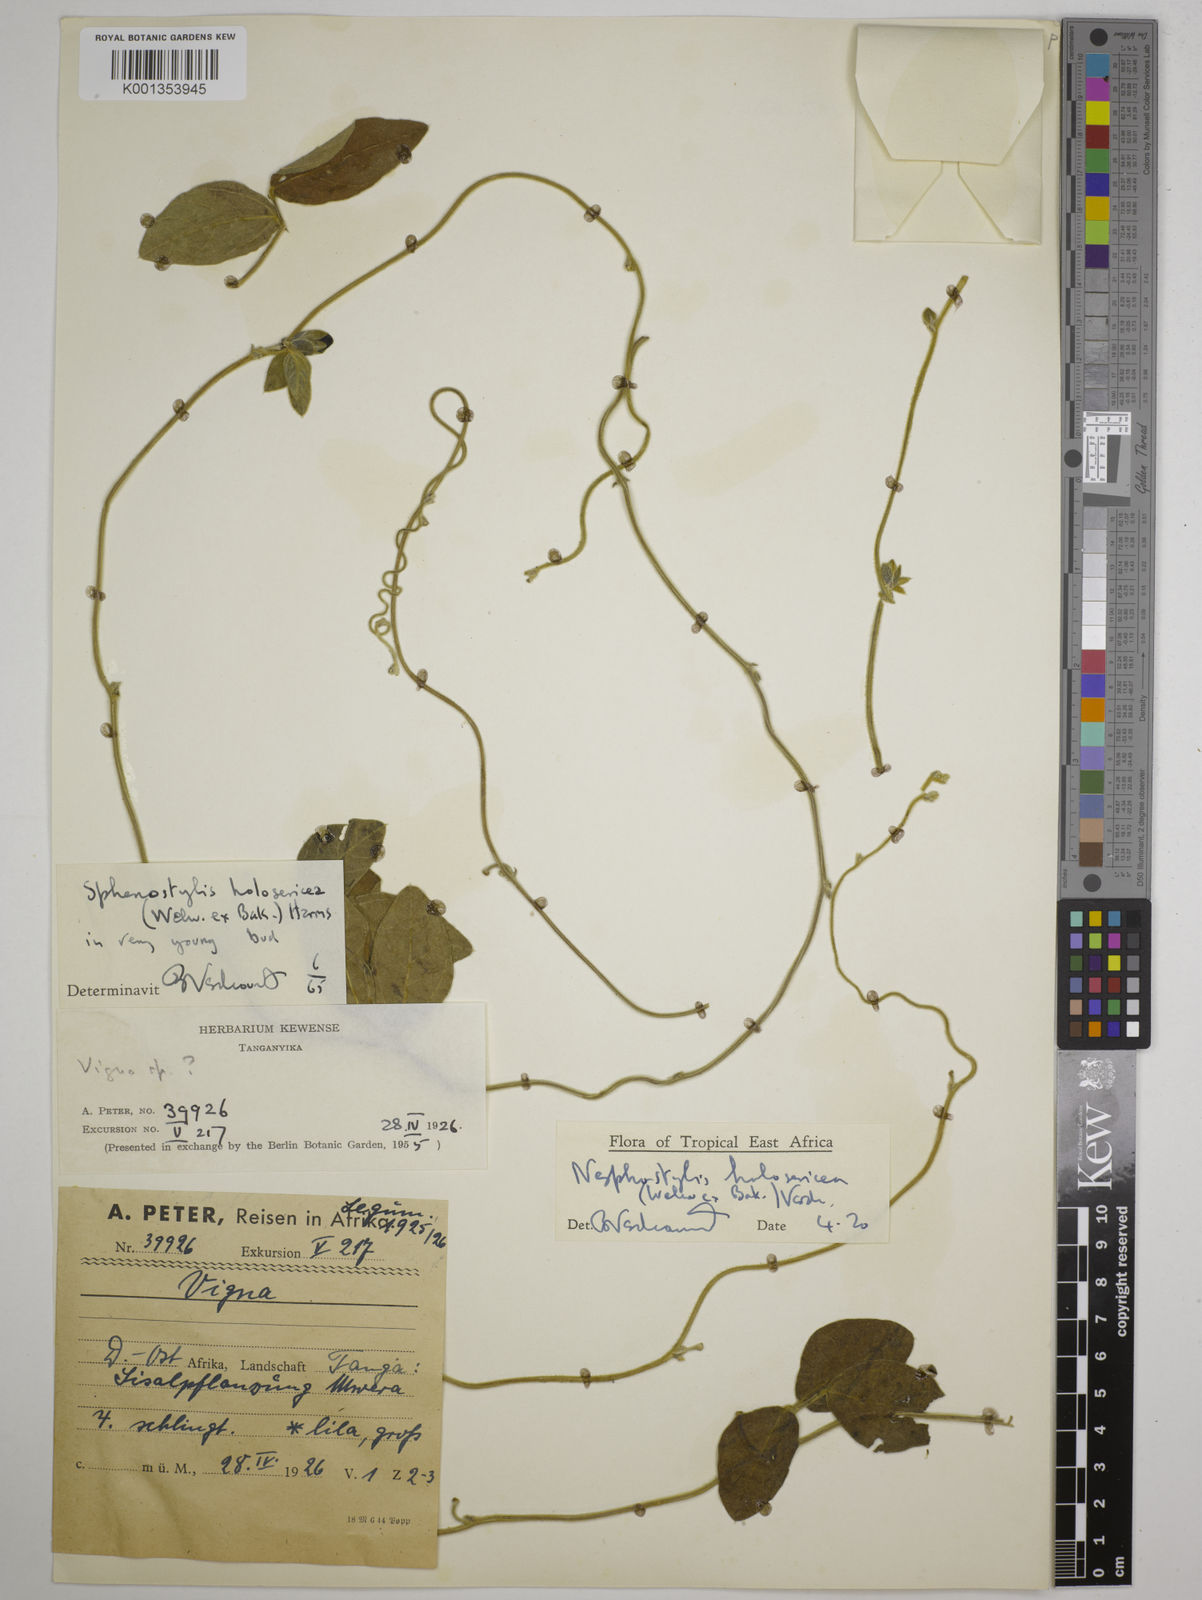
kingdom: Plantae
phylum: Tracheophyta
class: Magnoliopsida
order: Fabales
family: Fabaceae
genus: Nesphostylis
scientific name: Nesphostylis holosericea
